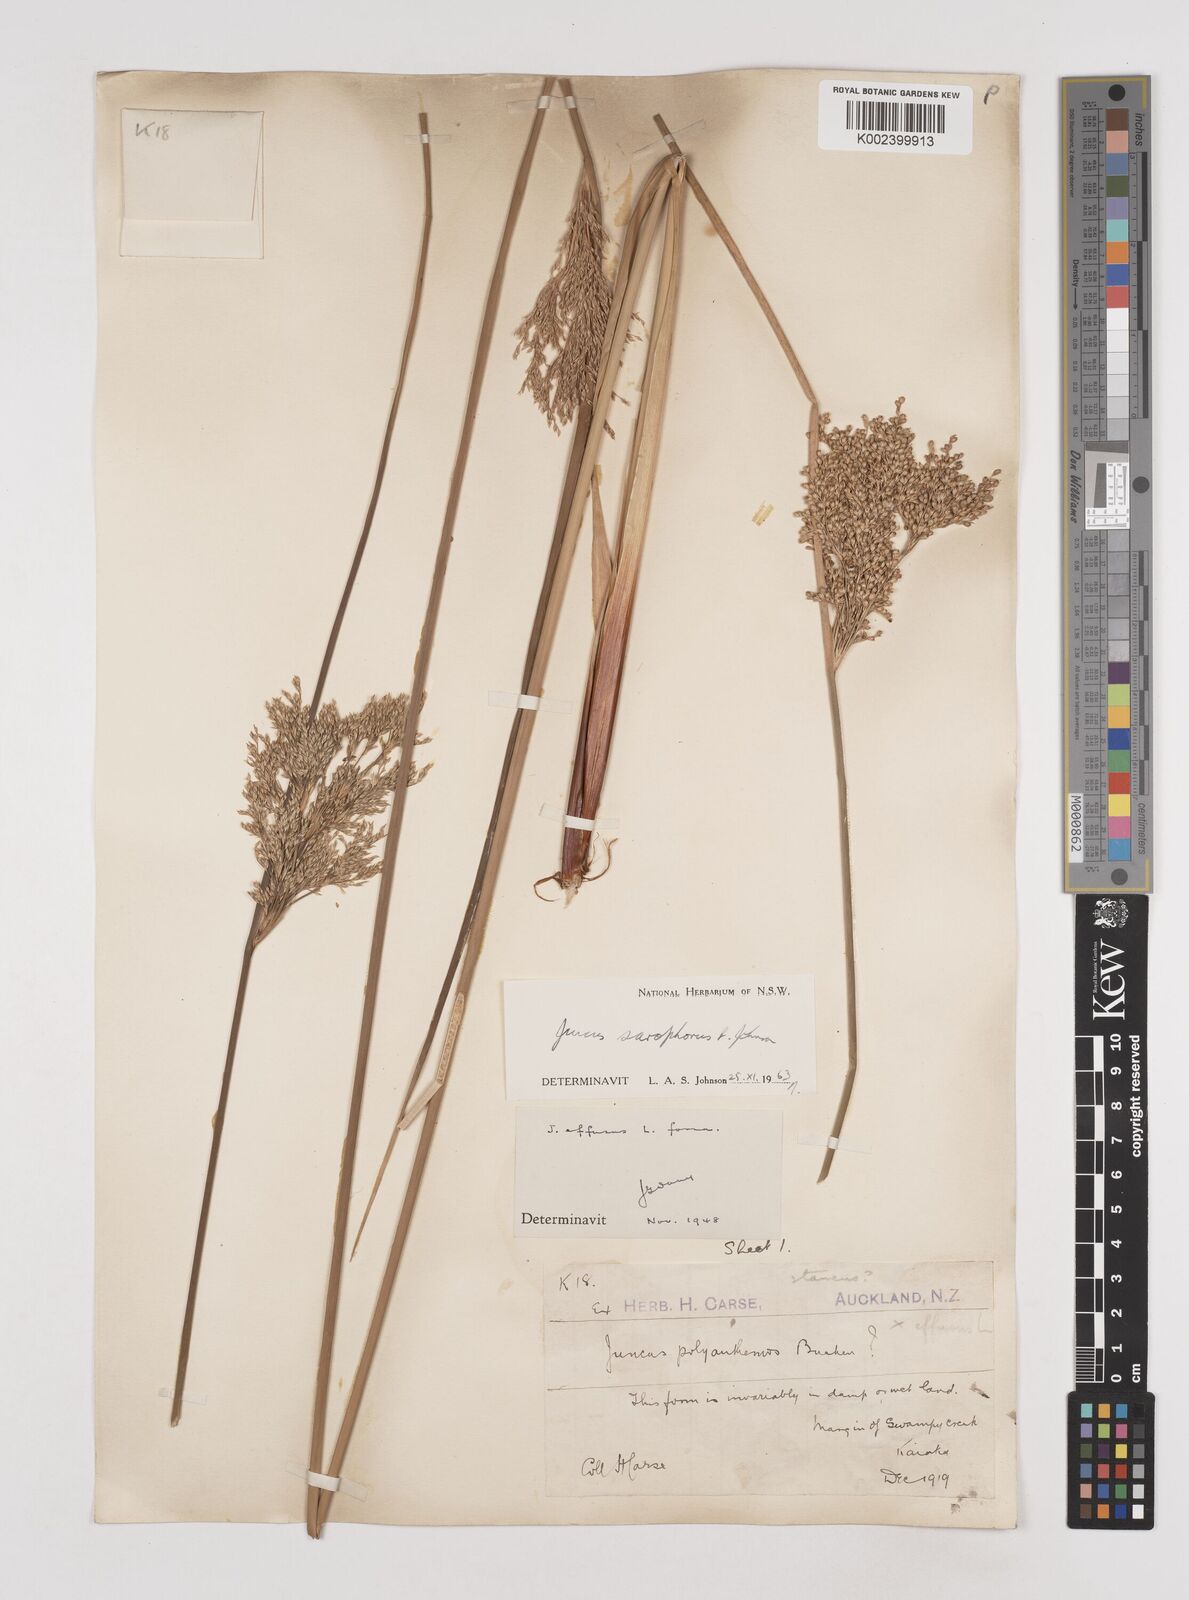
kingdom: Plantae
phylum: Tracheophyta
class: Liliopsida
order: Poales
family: Juncaceae
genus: Juncus
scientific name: Juncus sarophorus
